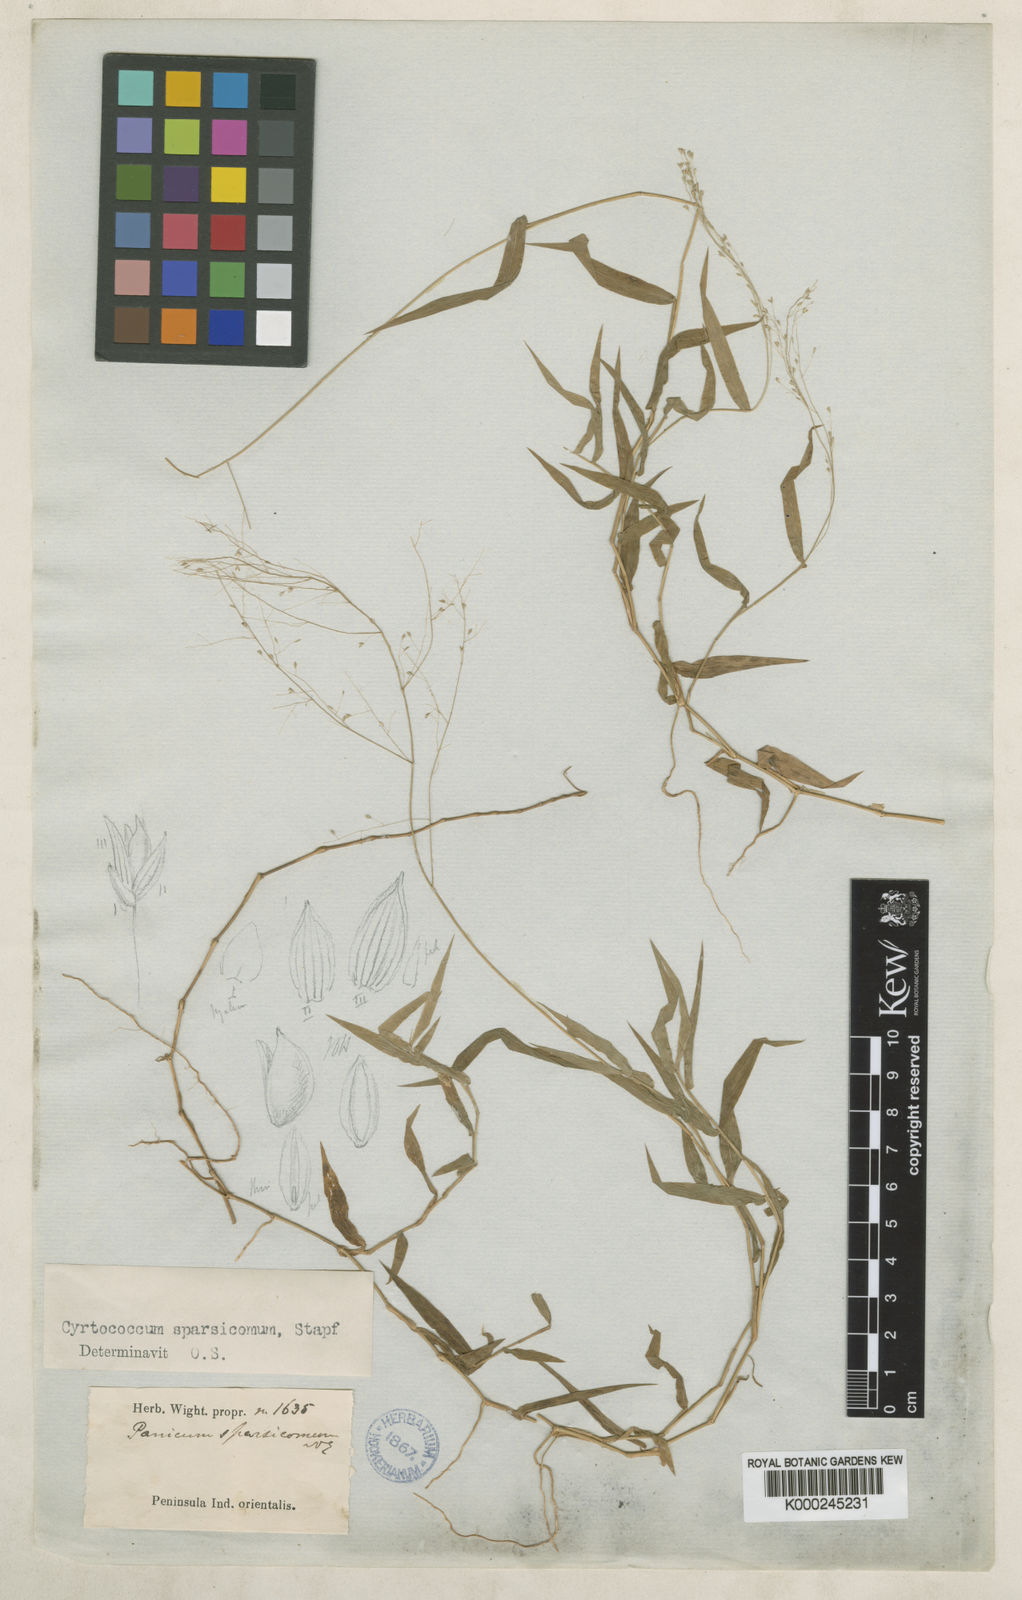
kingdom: Plantae
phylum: Tracheophyta
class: Liliopsida
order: Poales
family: Poaceae
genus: Panicum
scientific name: Panicum sparsicomum
